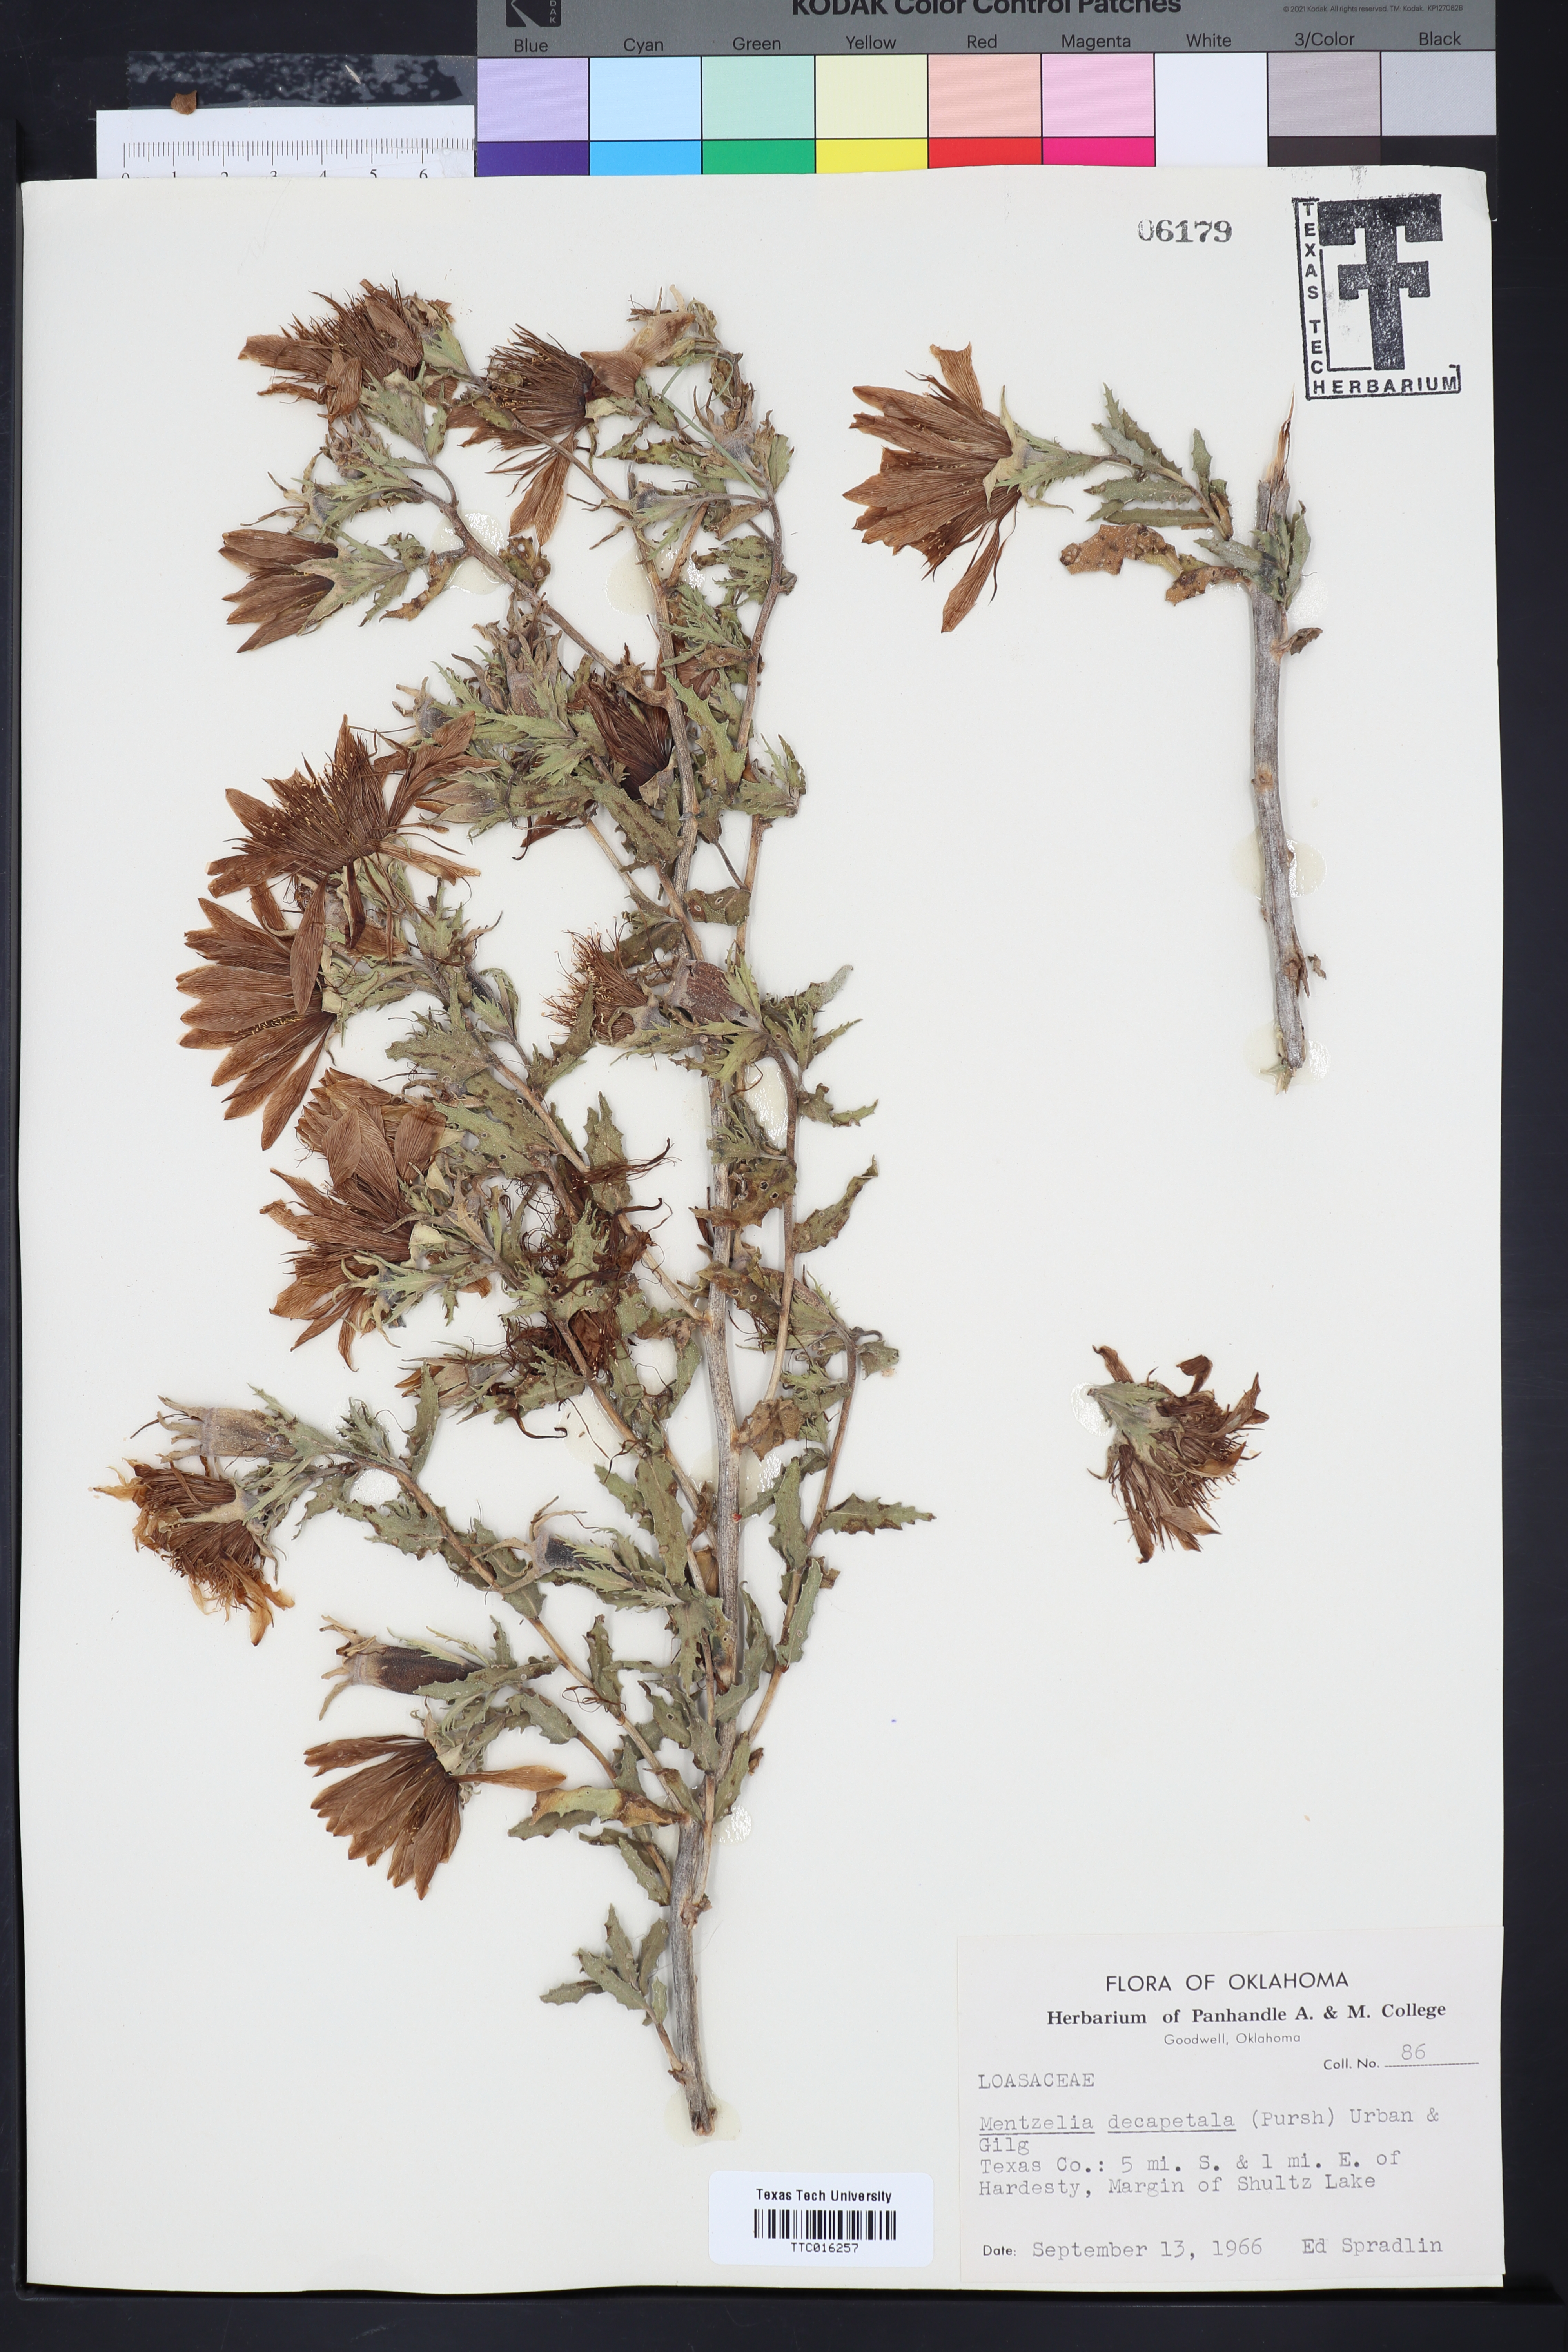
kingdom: Plantae
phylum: Tracheophyta
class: Magnoliopsida
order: Cornales
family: Loasaceae
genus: Mentzelia
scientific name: Mentzelia decapetala
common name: Gumbo-lily
